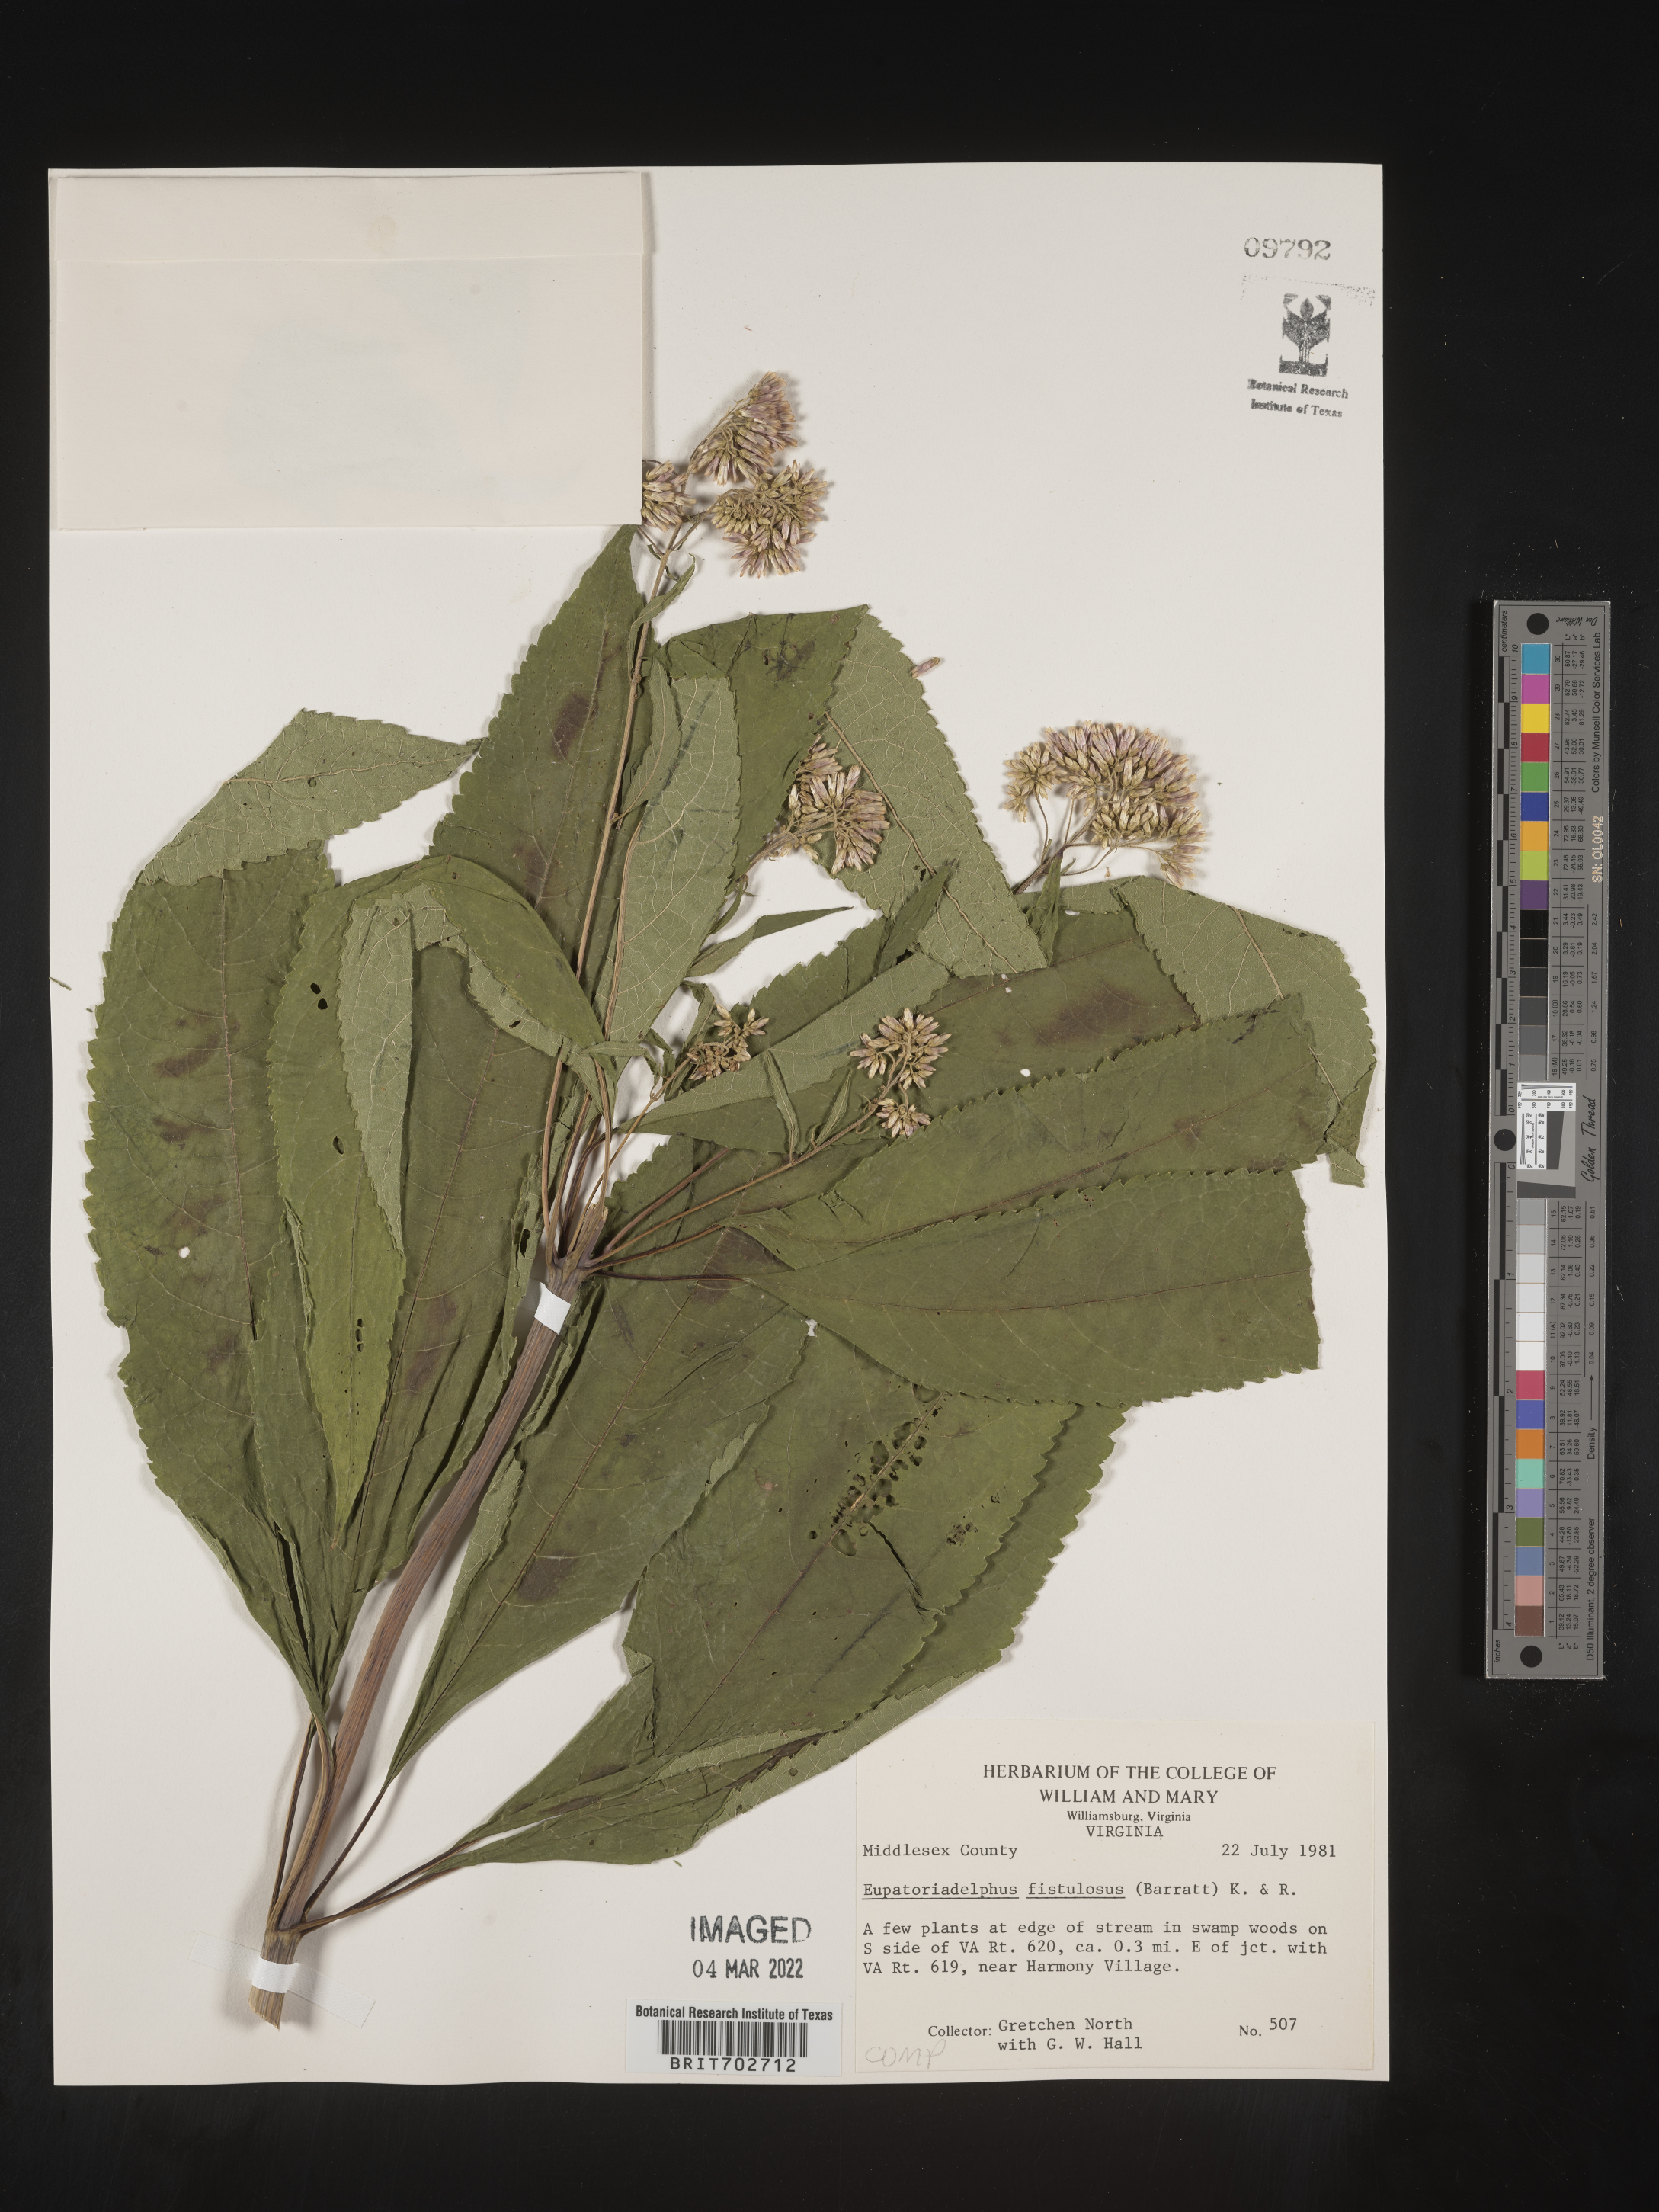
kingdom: Plantae
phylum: Tracheophyta
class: Magnoliopsida
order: Asterales
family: Asteraceae
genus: Eutrochium
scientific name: Eutrochium
